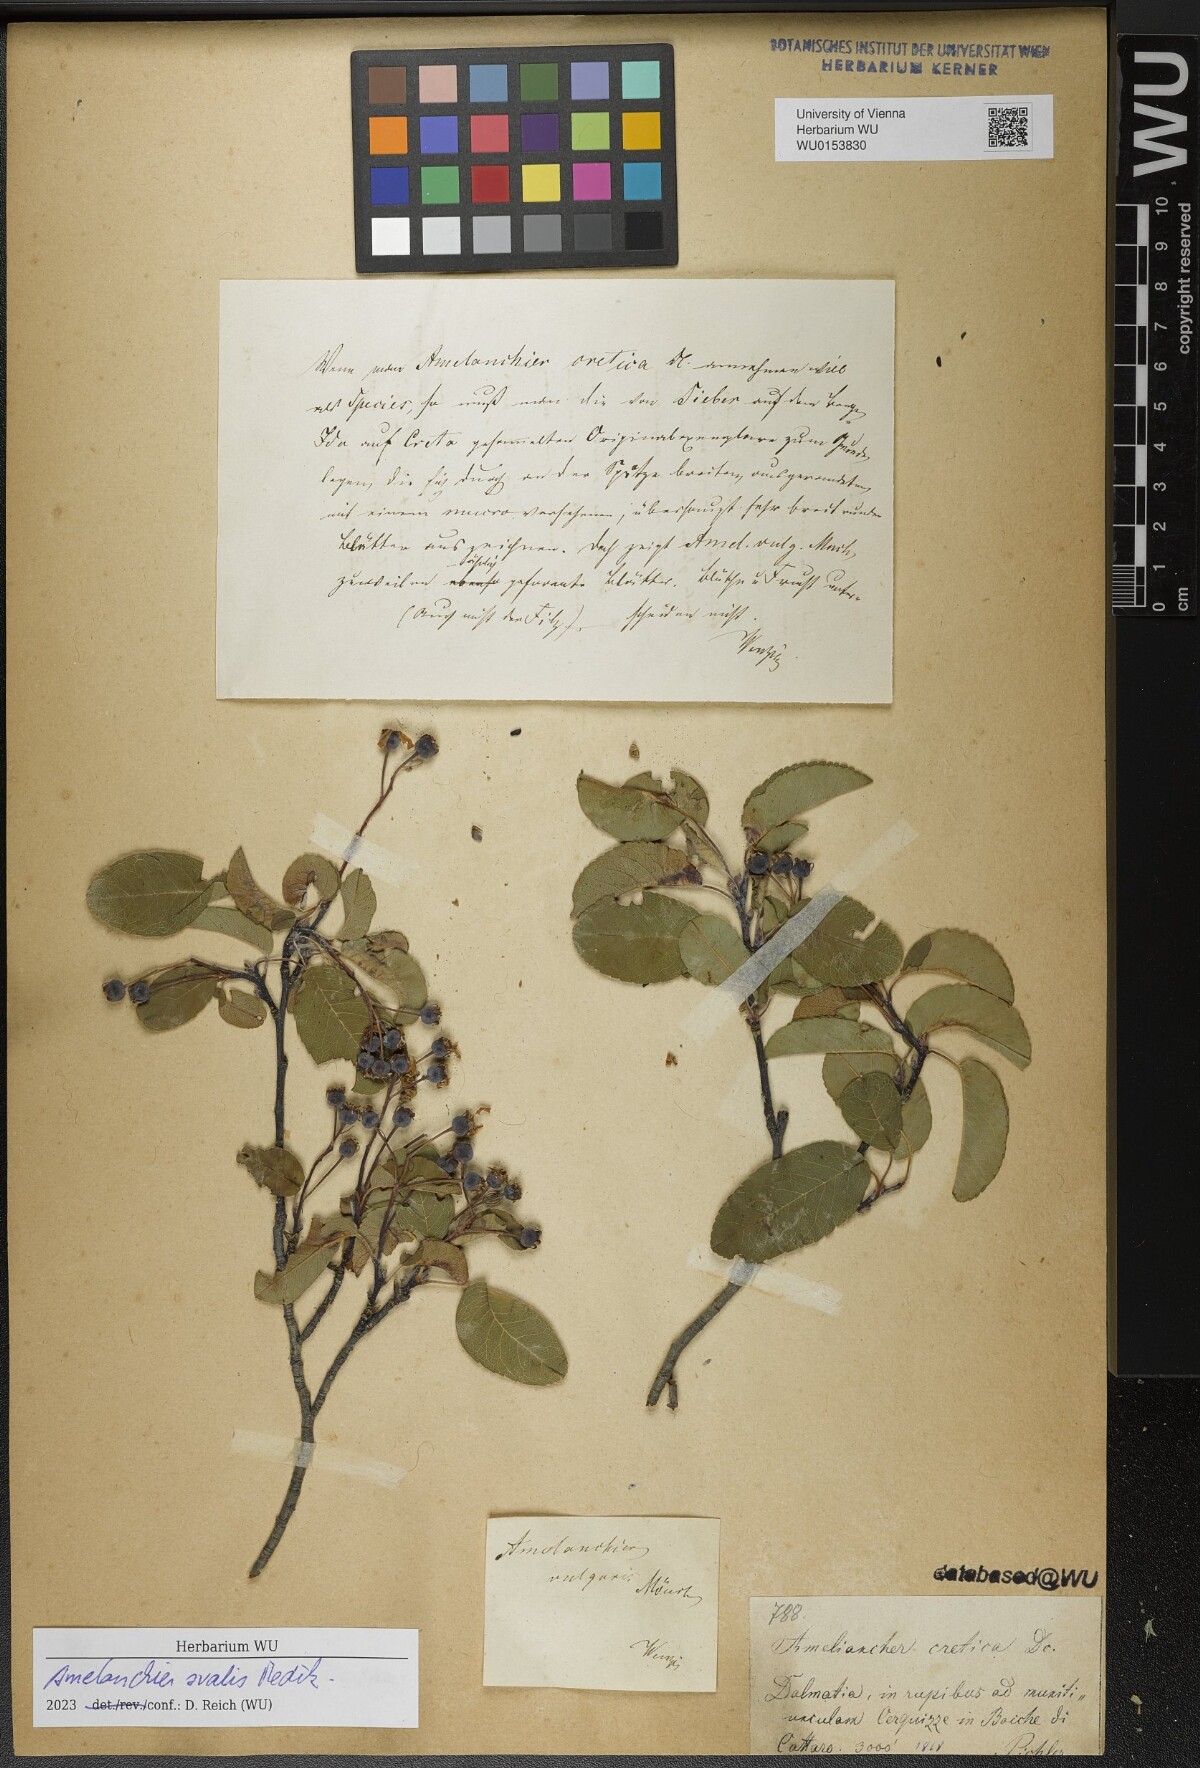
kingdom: Plantae
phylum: Tracheophyta
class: Magnoliopsida
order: Rosales
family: Rosaceae
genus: Amelanchier
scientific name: Amelanchier ovalis
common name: Serviceberry
